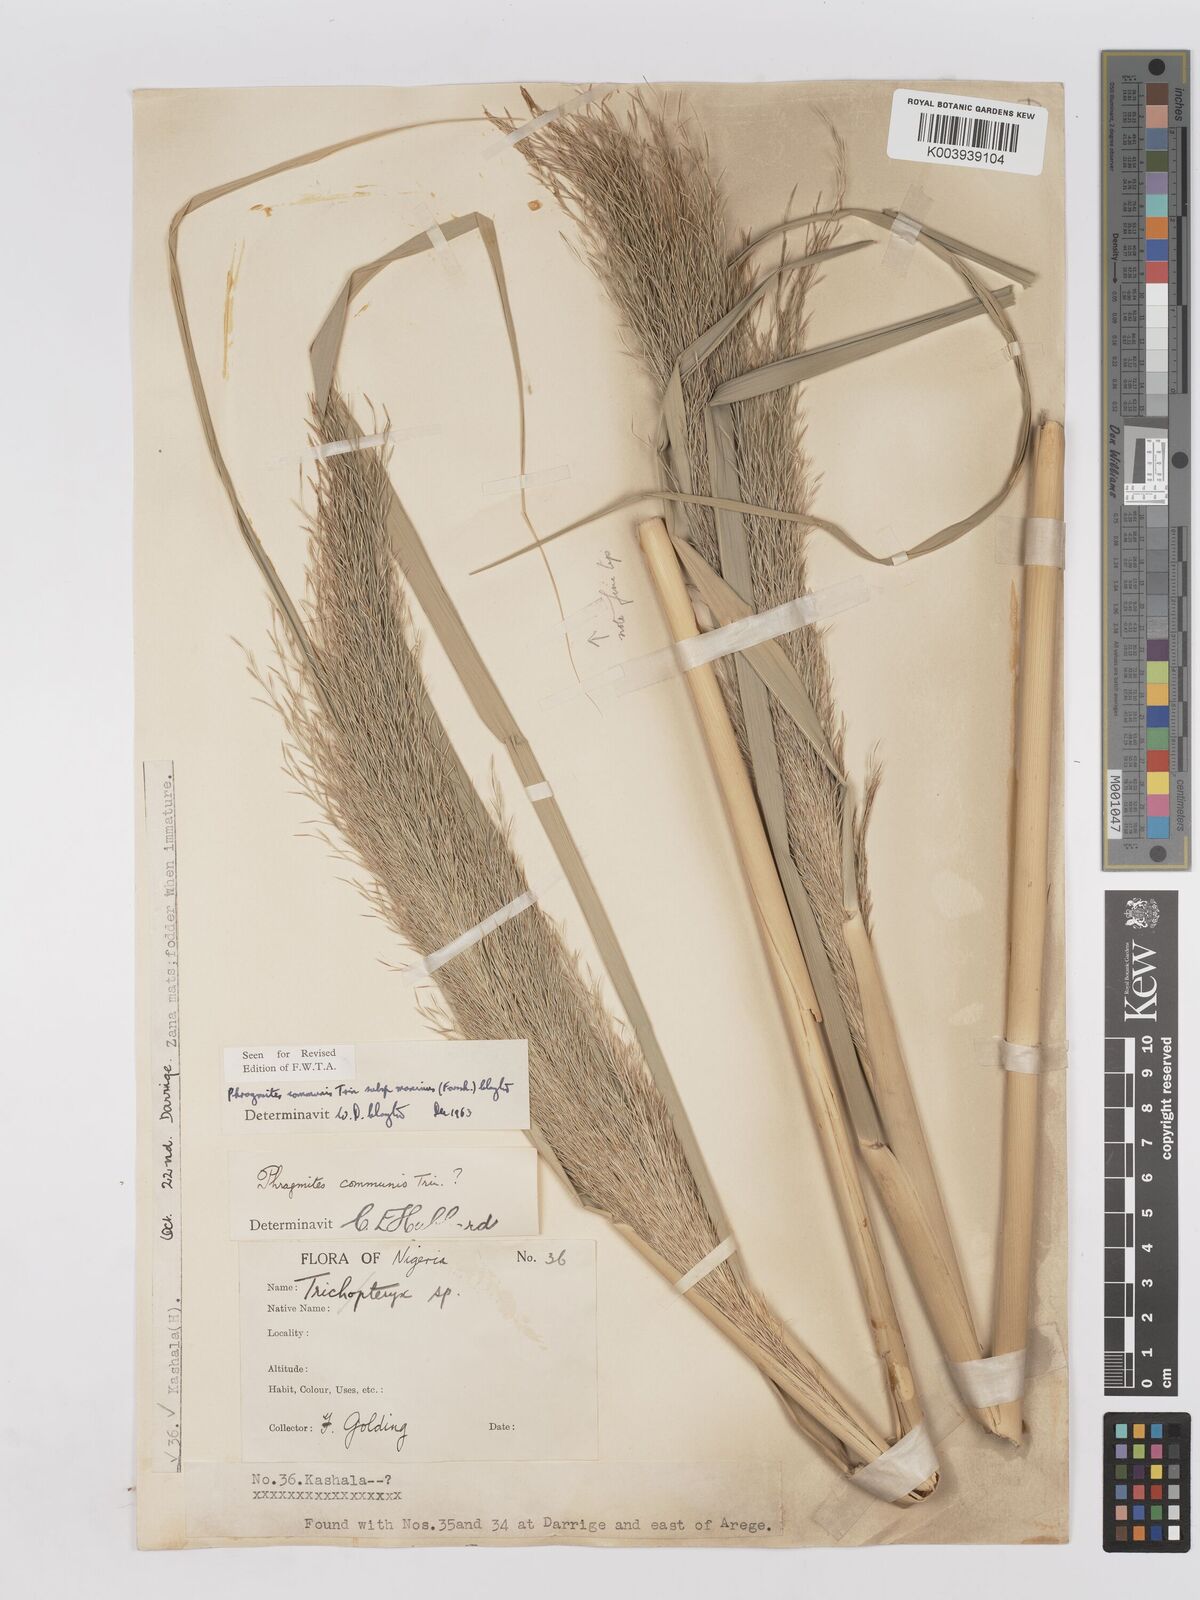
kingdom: Plantae
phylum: Tracheophyta
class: Liliopsida
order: Poales
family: Poaceae
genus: Phragmites
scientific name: Phragmites australis
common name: Common reed
